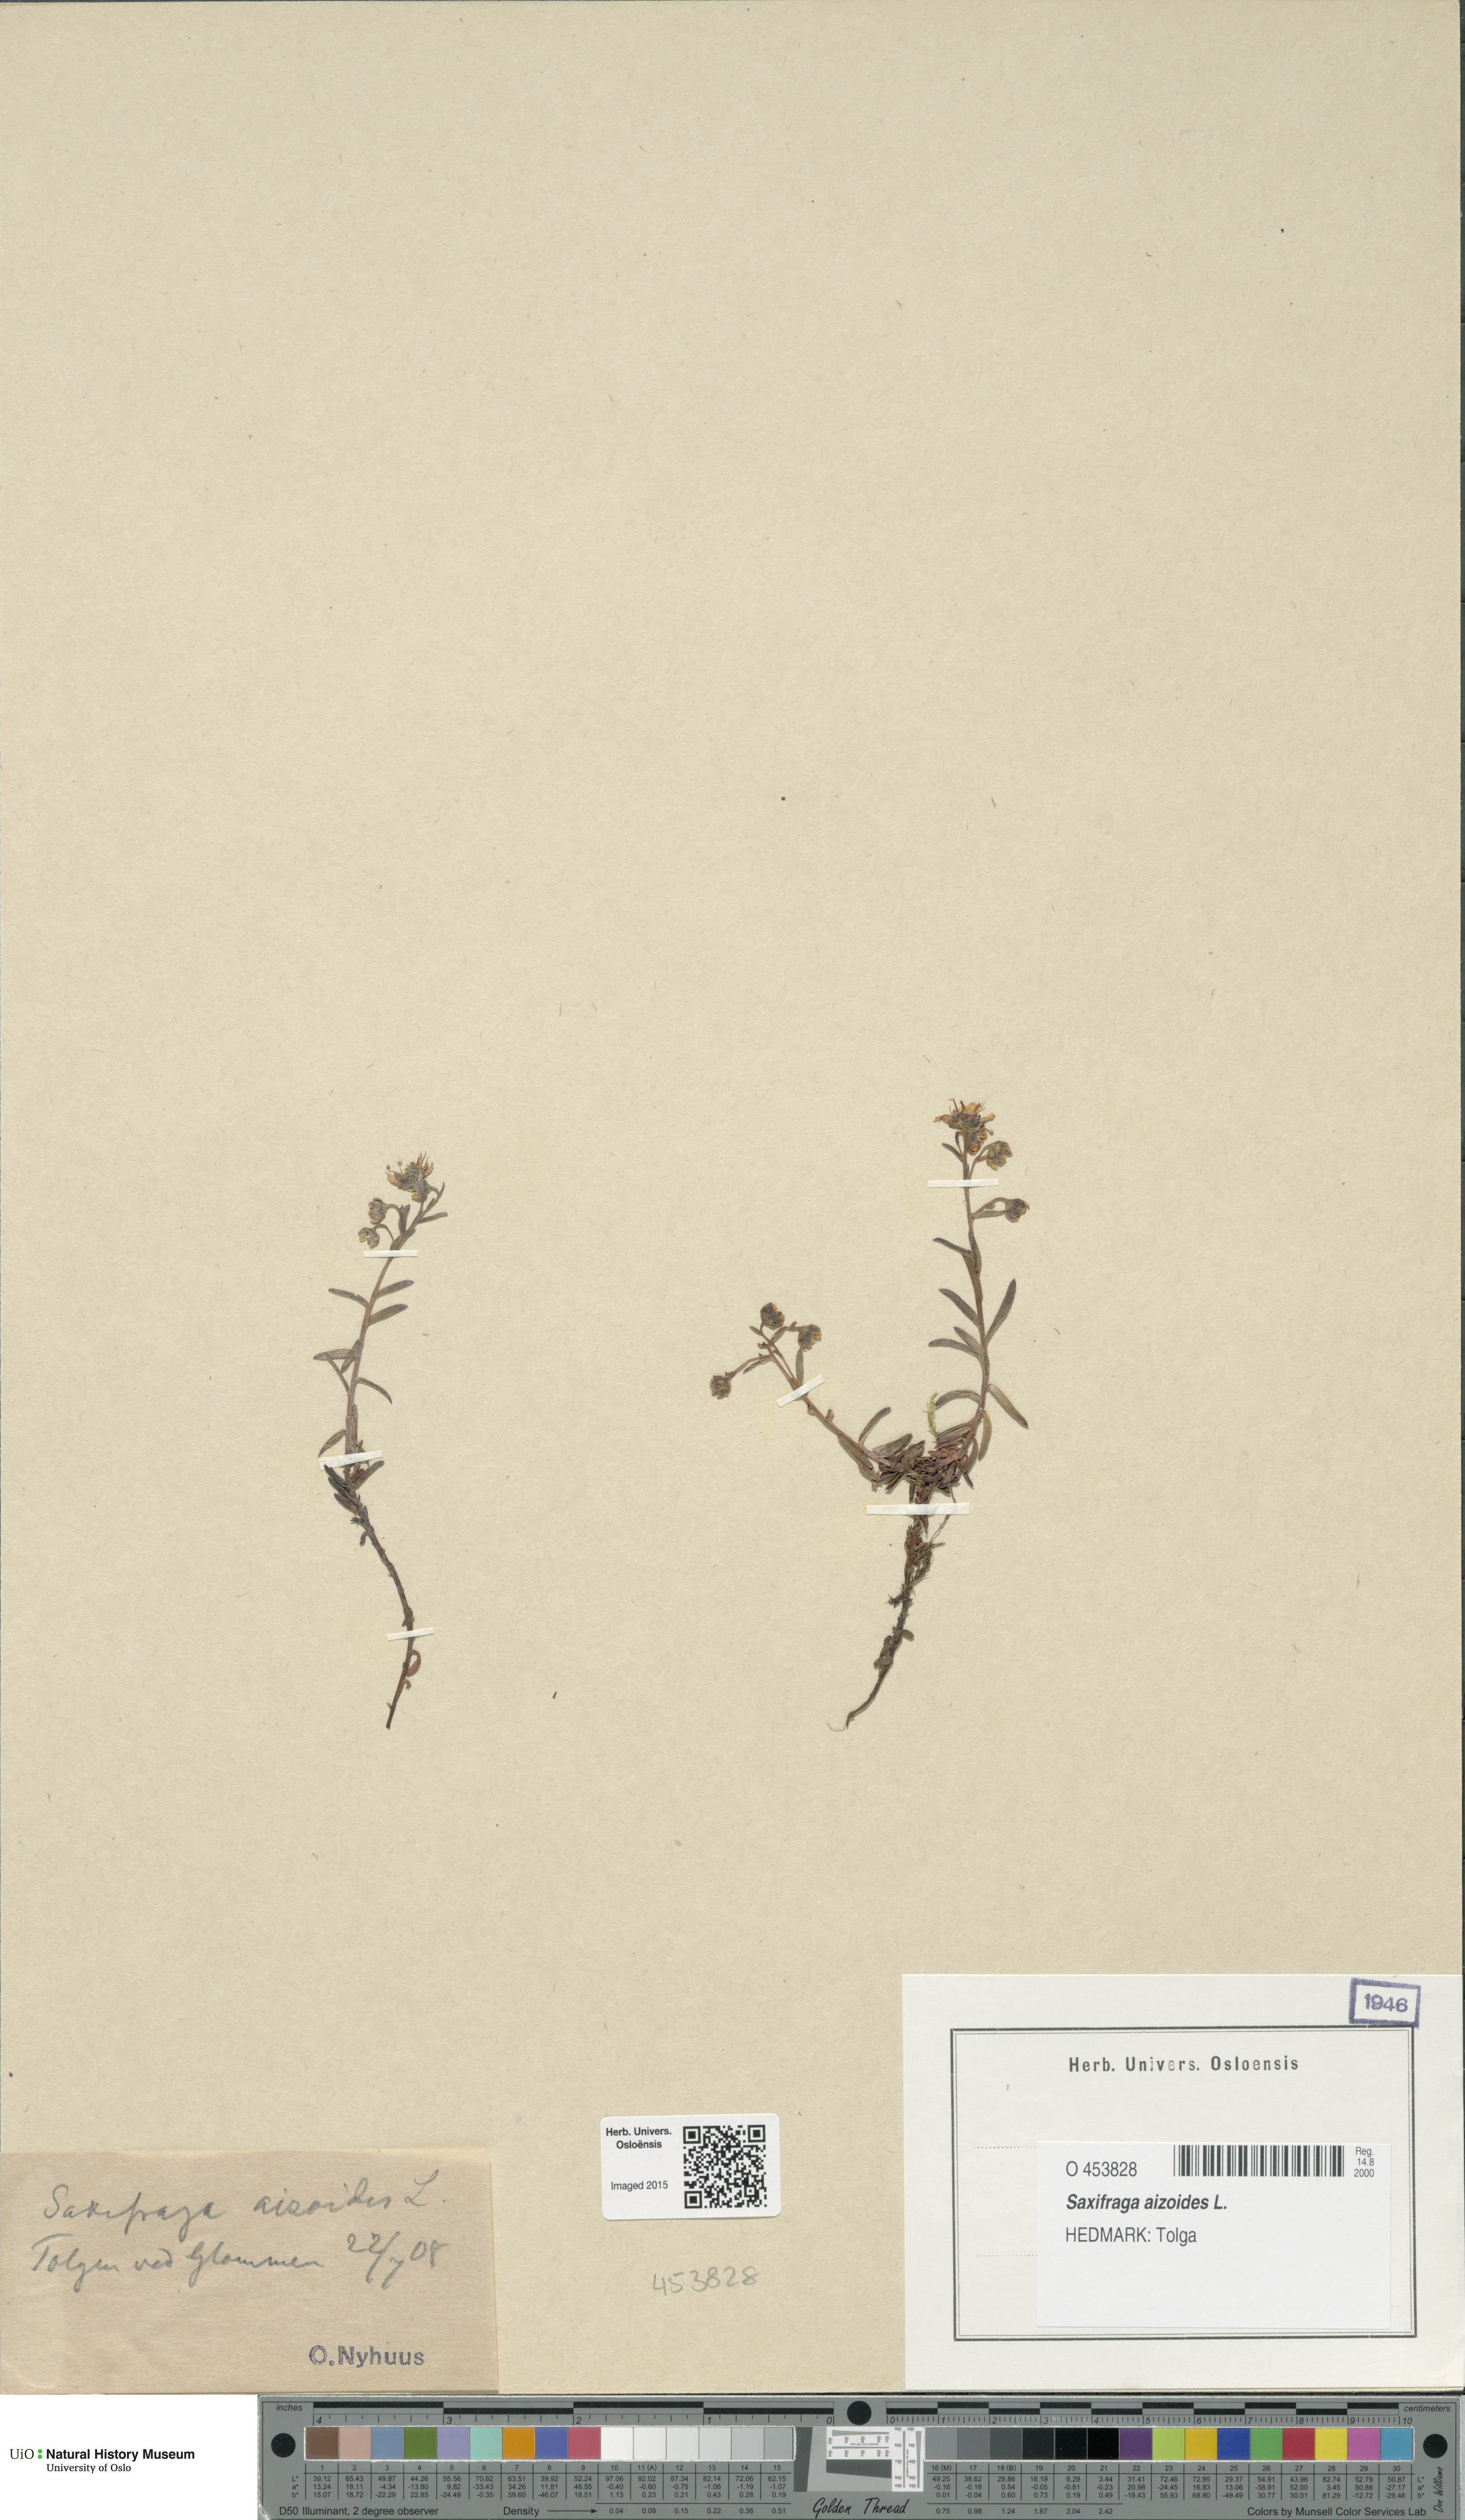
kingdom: Plantae
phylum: Tracheophyta
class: Magnoliopsida
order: Saxifragales
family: Saxifragaceae
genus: Saxifraga
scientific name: Saxifraga aizoides
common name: Yellow mountain saxifrage
